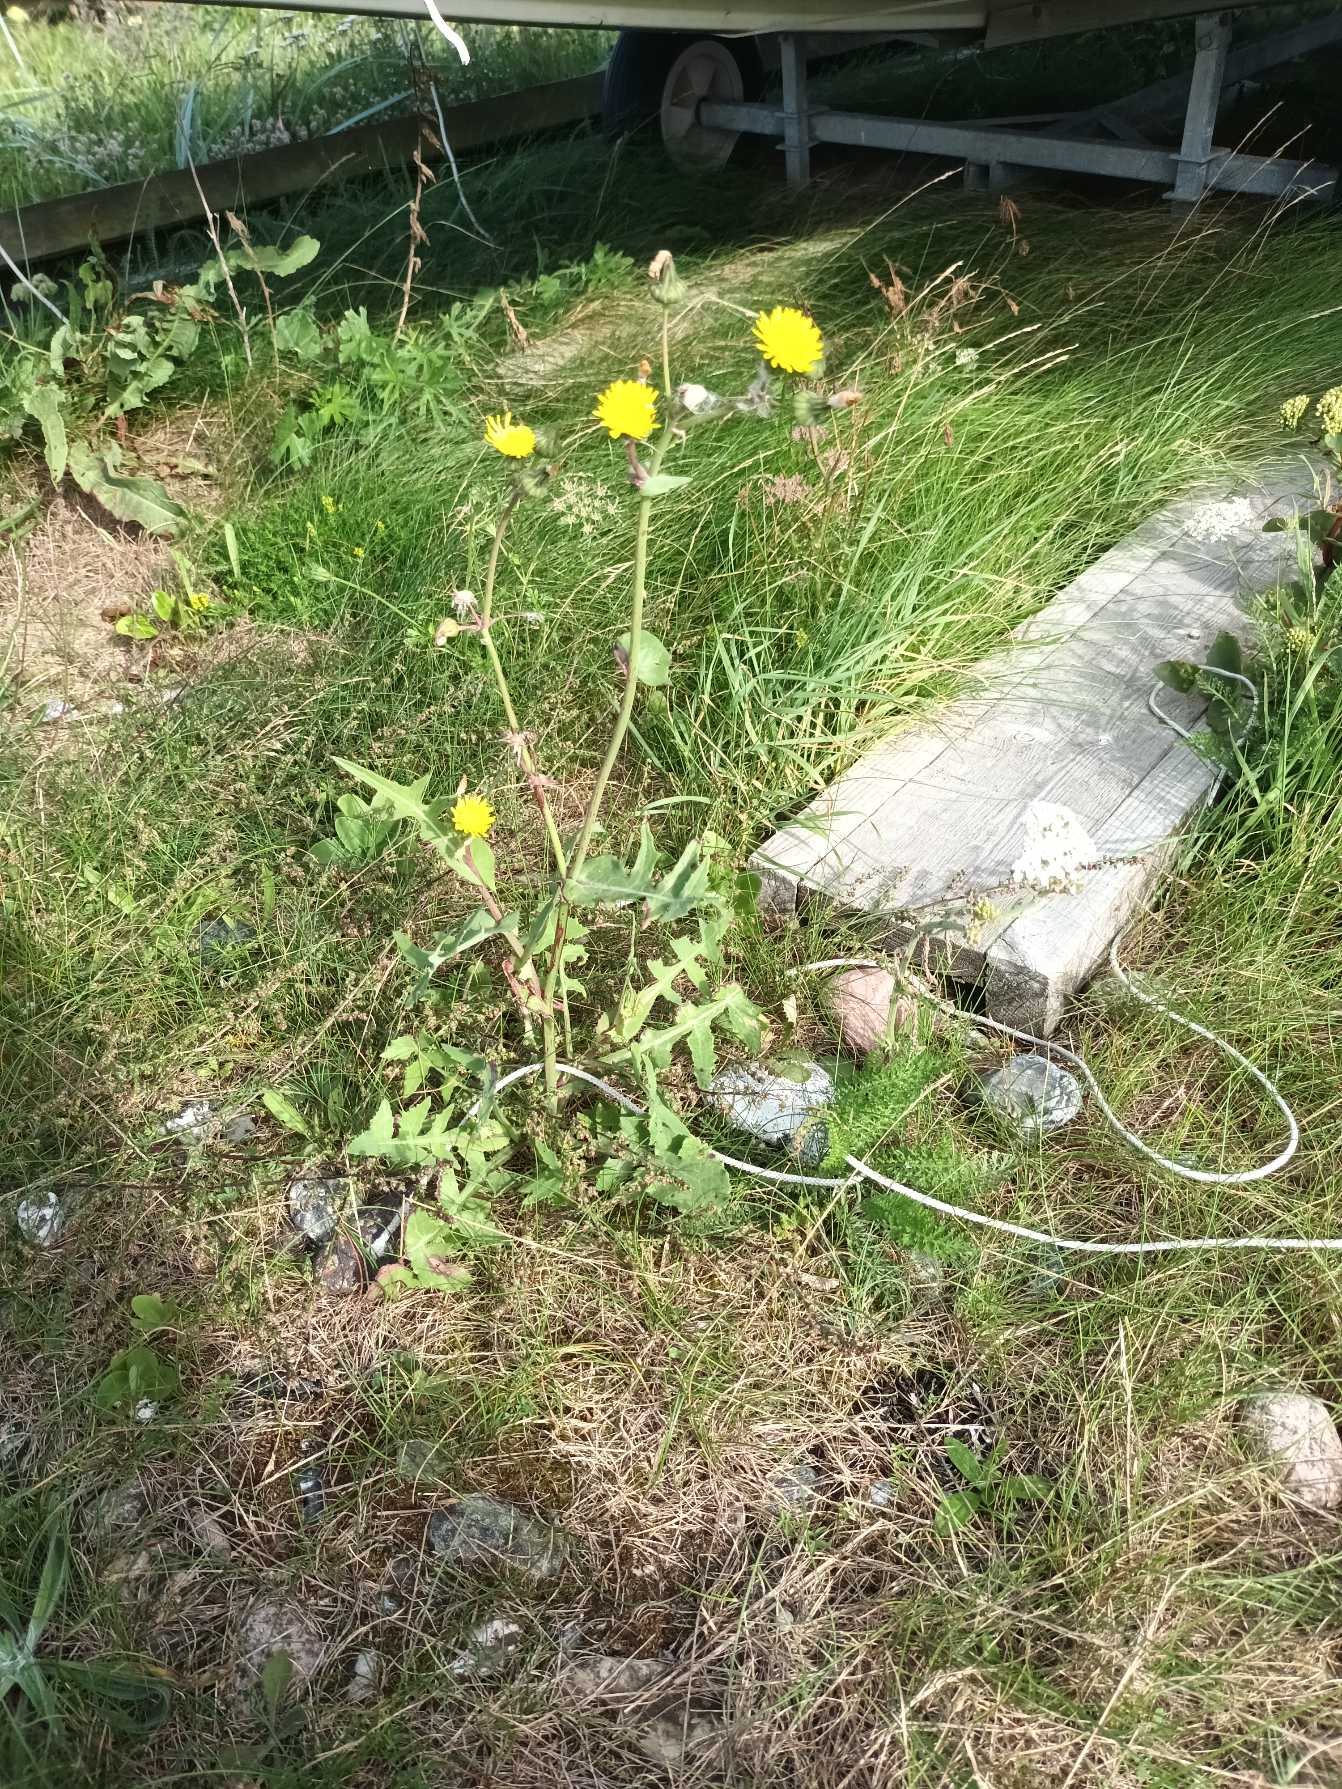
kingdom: Plantae
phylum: Tracheophyta
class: Magnoliopsida
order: Asterales
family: Asteraceae
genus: Sonchus
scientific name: Sonchus oleraceus
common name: Almindelig svinemælk
